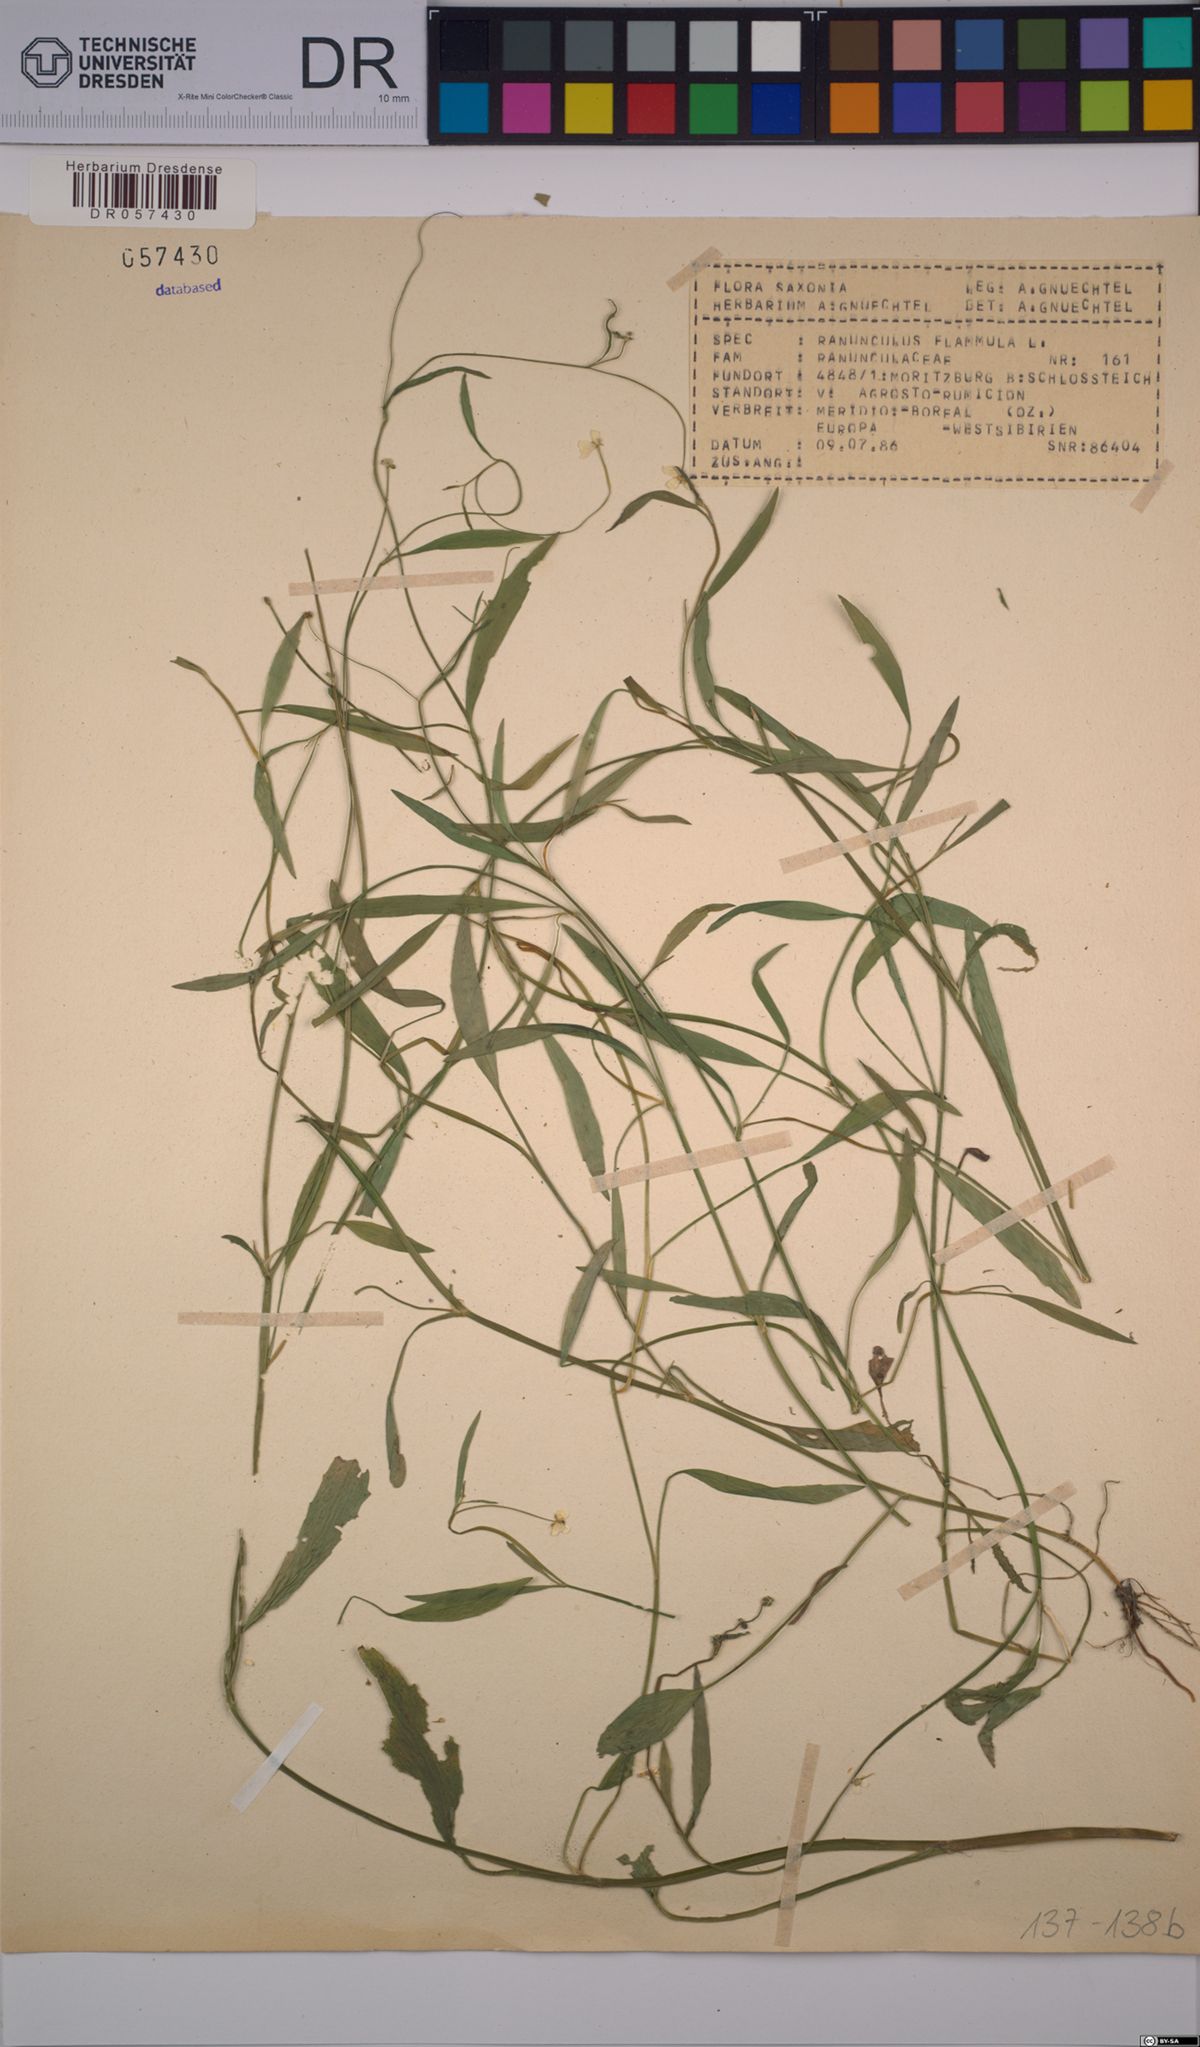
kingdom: Plantae
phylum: Tracheophyta
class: Magnoliopsida
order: Ranunculales
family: Ranunculaceae
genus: Ranunculus
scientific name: Ranunculus flammula
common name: Lesser spearwort
